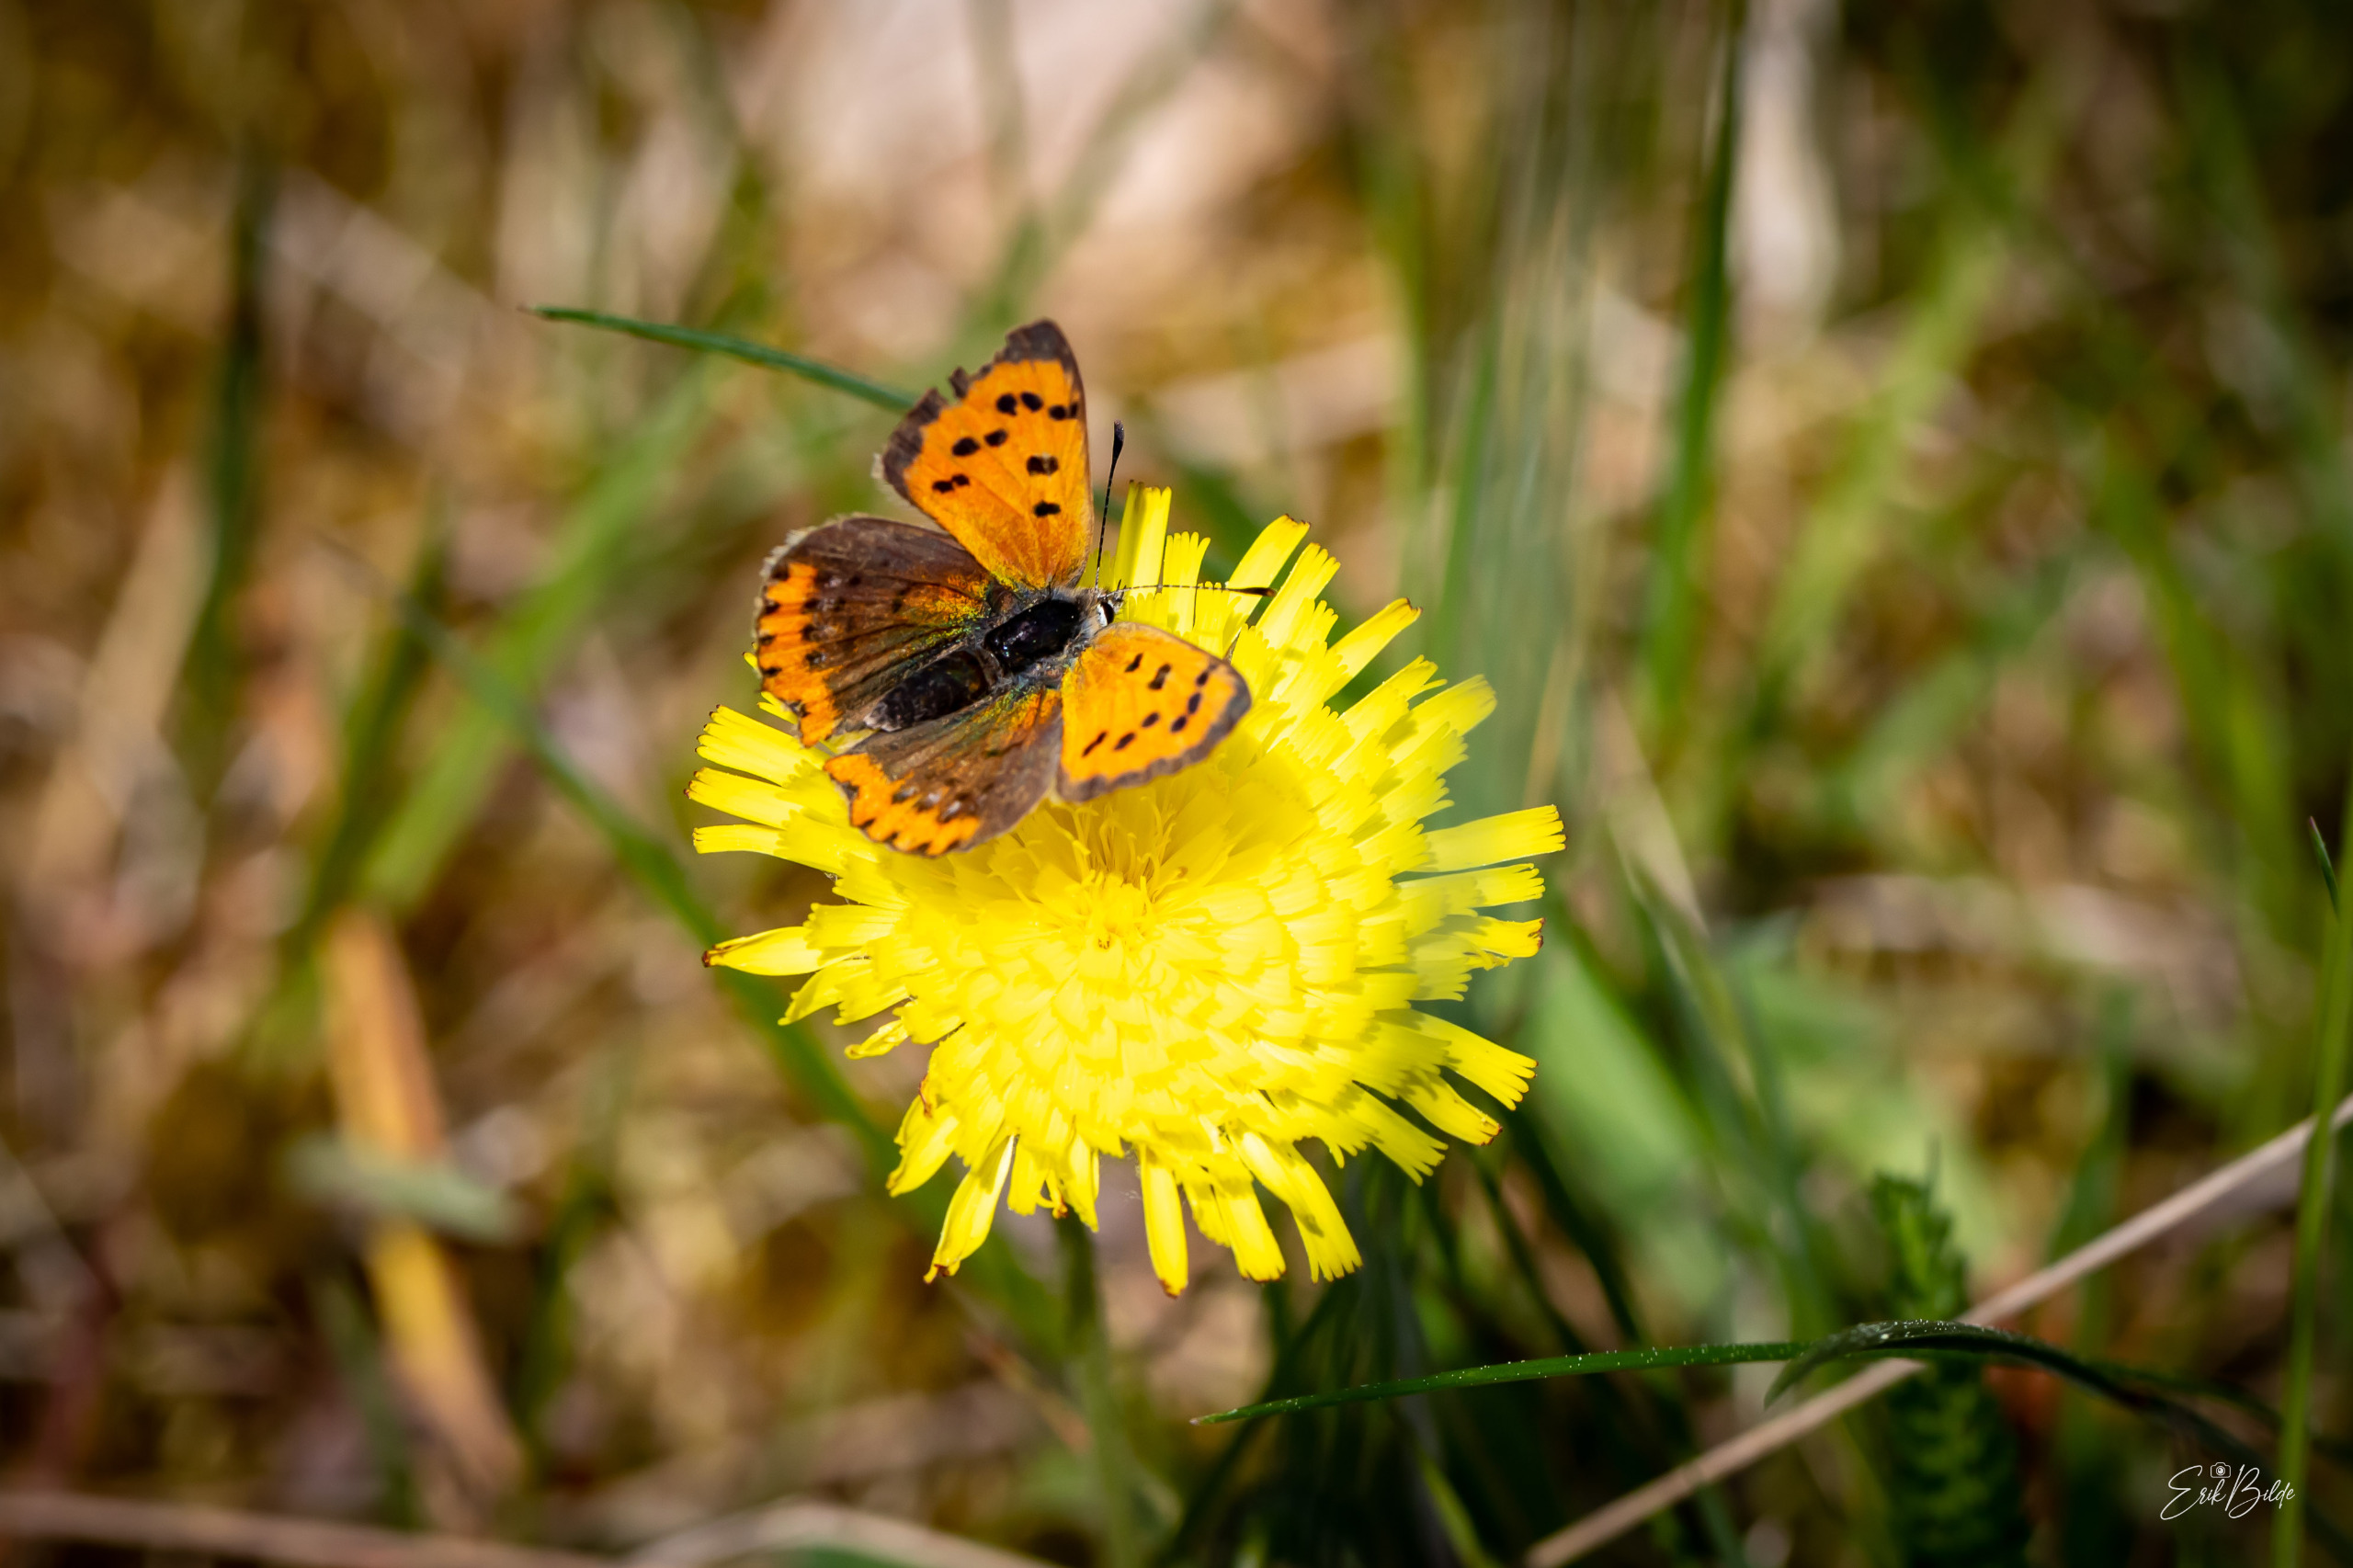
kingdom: Animalia
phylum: Arthropoda
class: Insecta
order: Lepidoptera
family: Lycaenidae
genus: Lycaena
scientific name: Lycaena phlaeas
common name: Lille ildfugl
